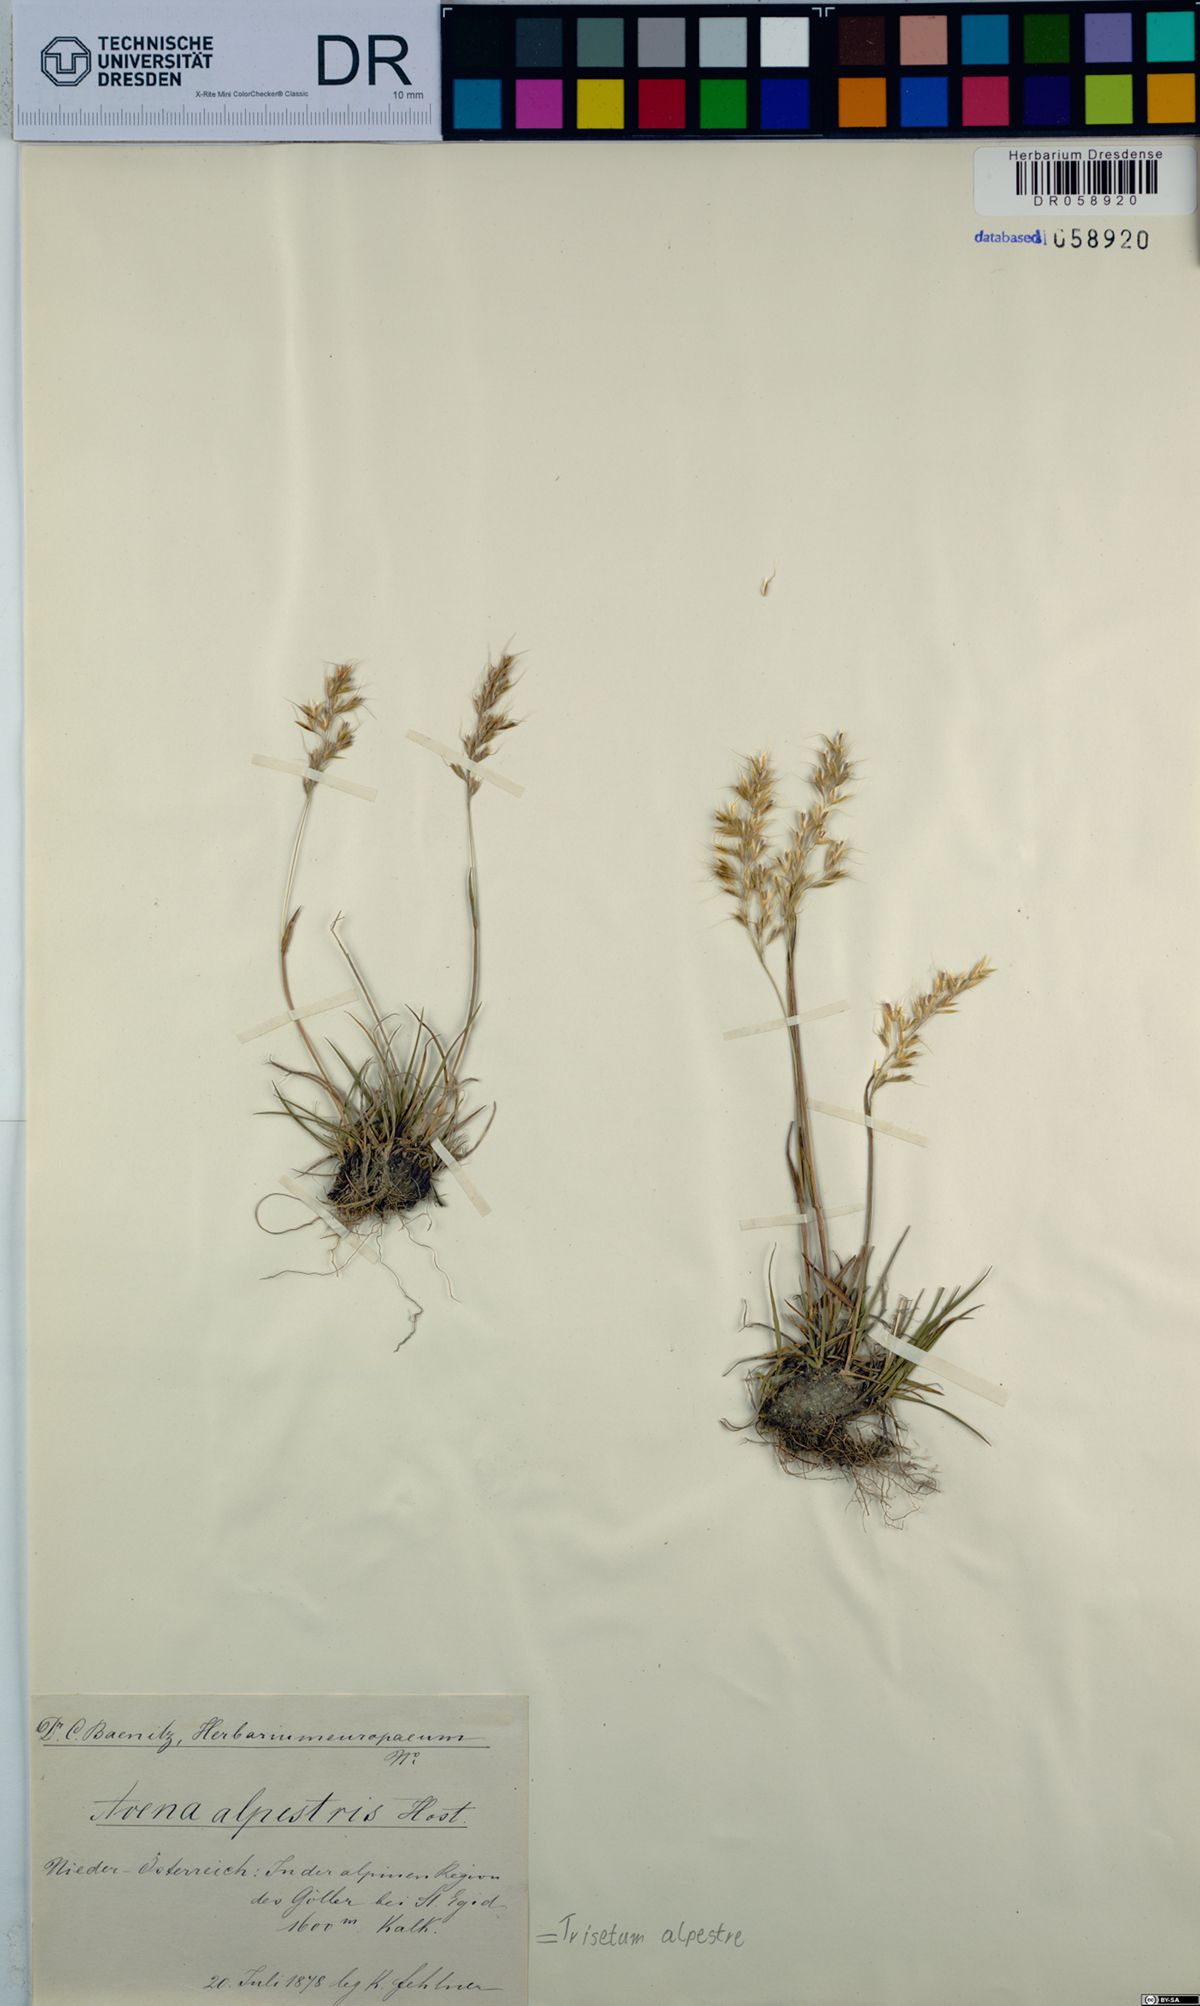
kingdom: Plantae
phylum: Tracheophyta
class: Liliopsida
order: Poales
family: Poaceae
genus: Trisetum
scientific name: Trisetum alpestre
